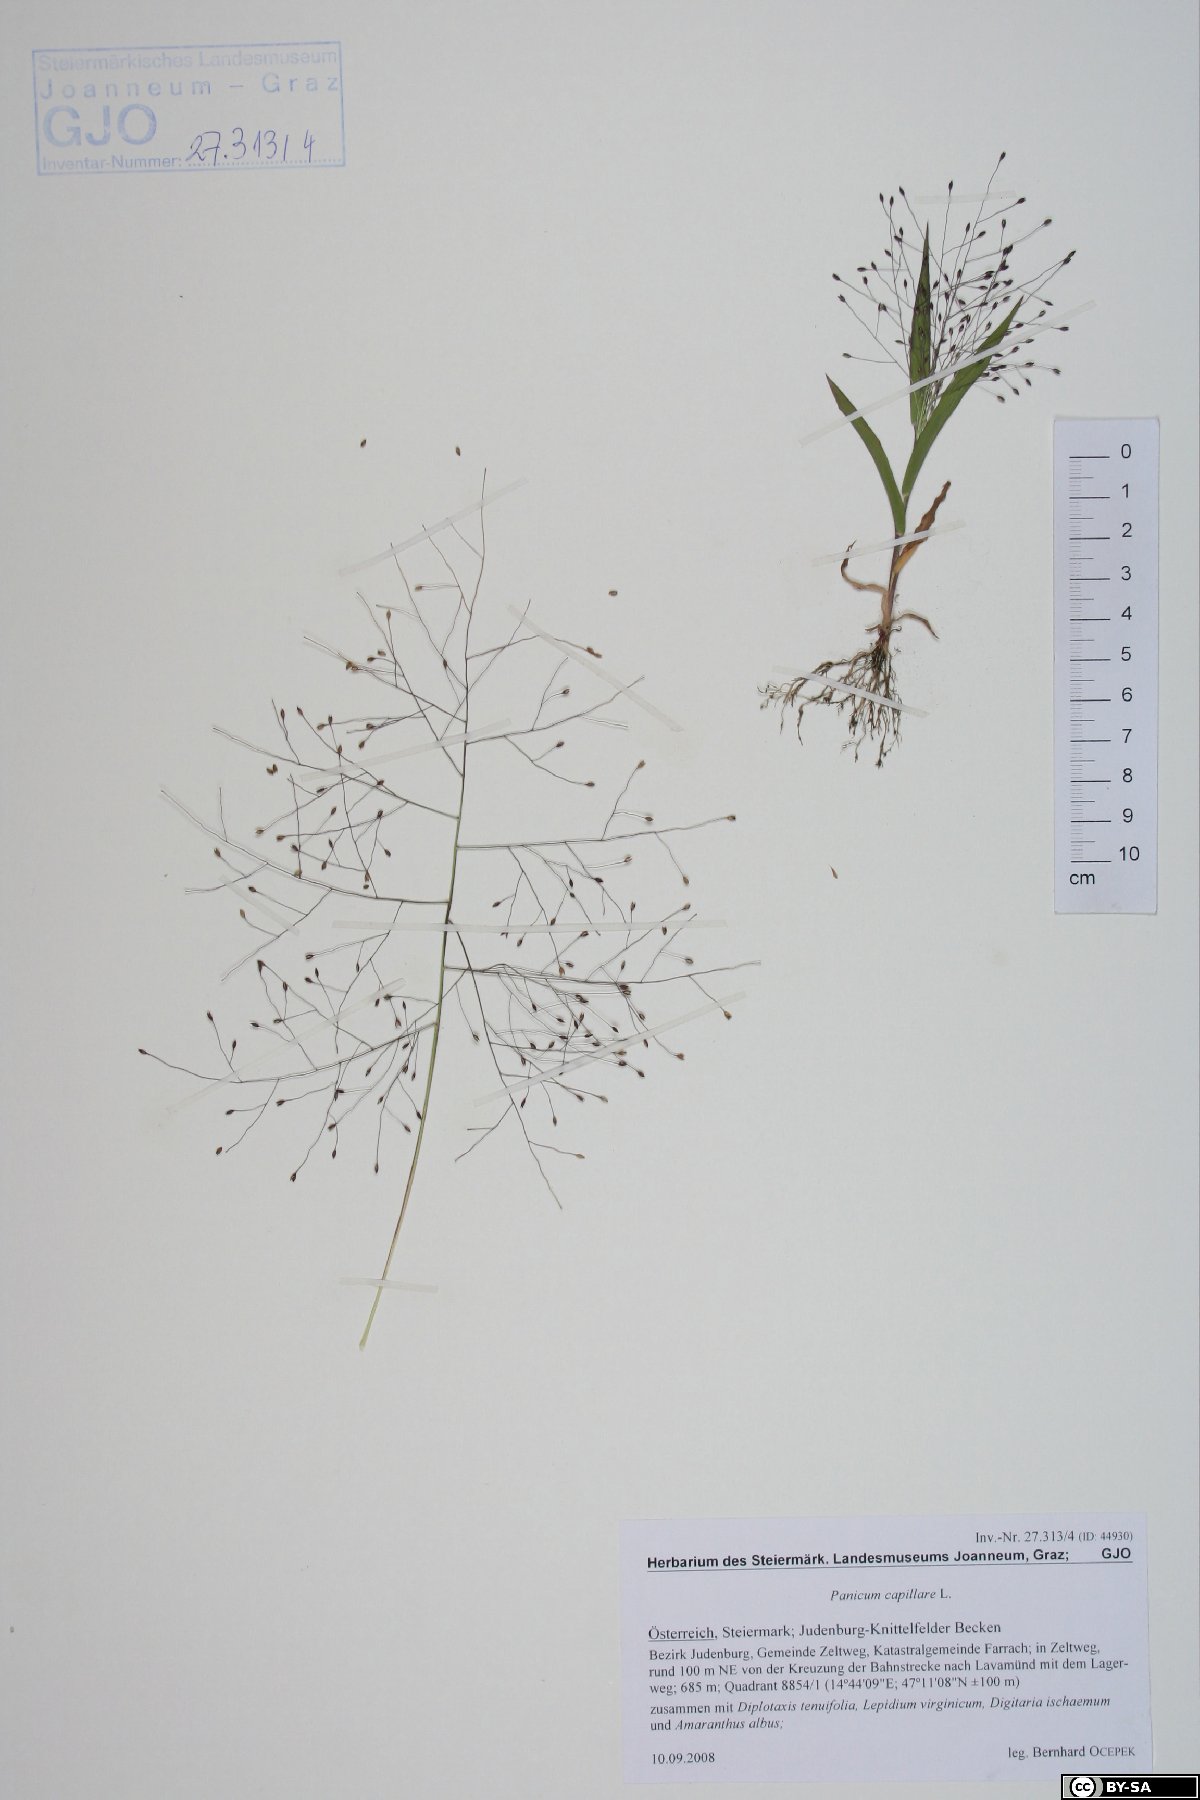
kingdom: Plantae
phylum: Tracheophyta
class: Liliopsida
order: Poales
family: Poaceae
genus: Panicum
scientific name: Panicum capillare
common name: Witch-grass
